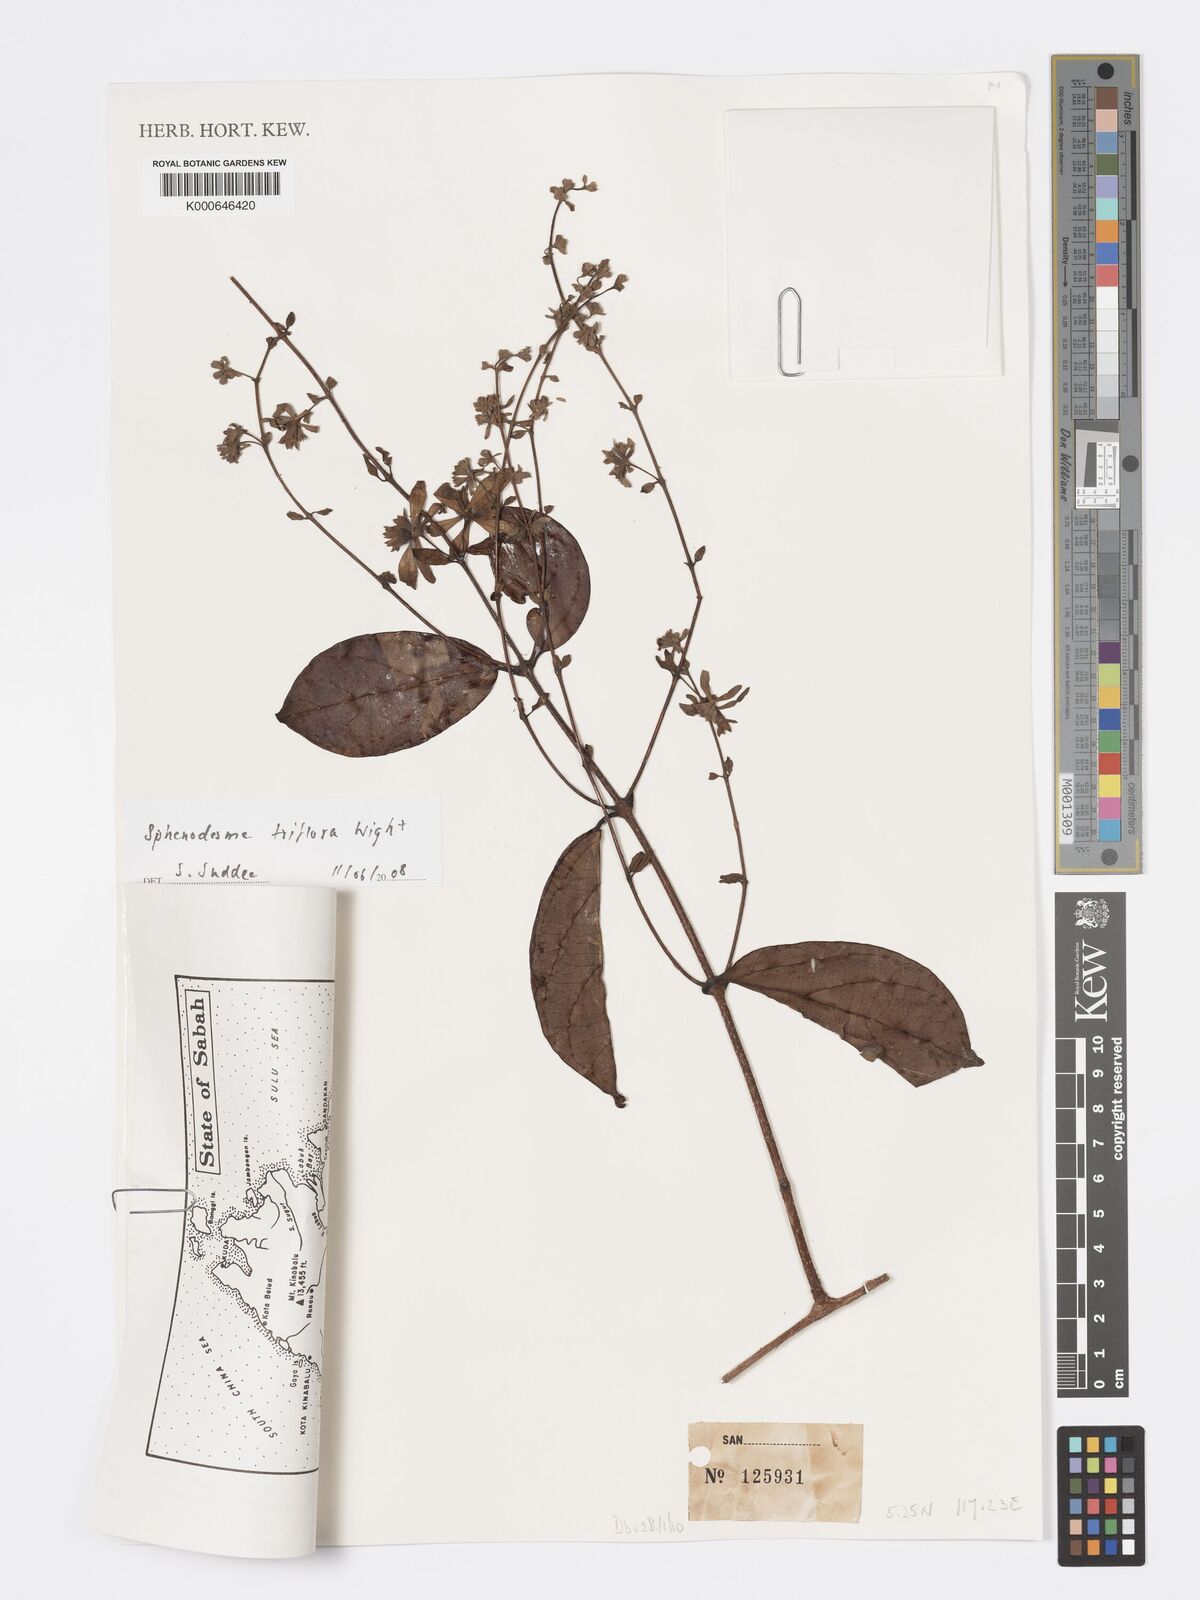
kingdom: Plantae
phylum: Tracheophyta
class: Magnoliopsida
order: Lamiales
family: Lamiaceae
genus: Sphenodesme
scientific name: Sphenodesme triflora
